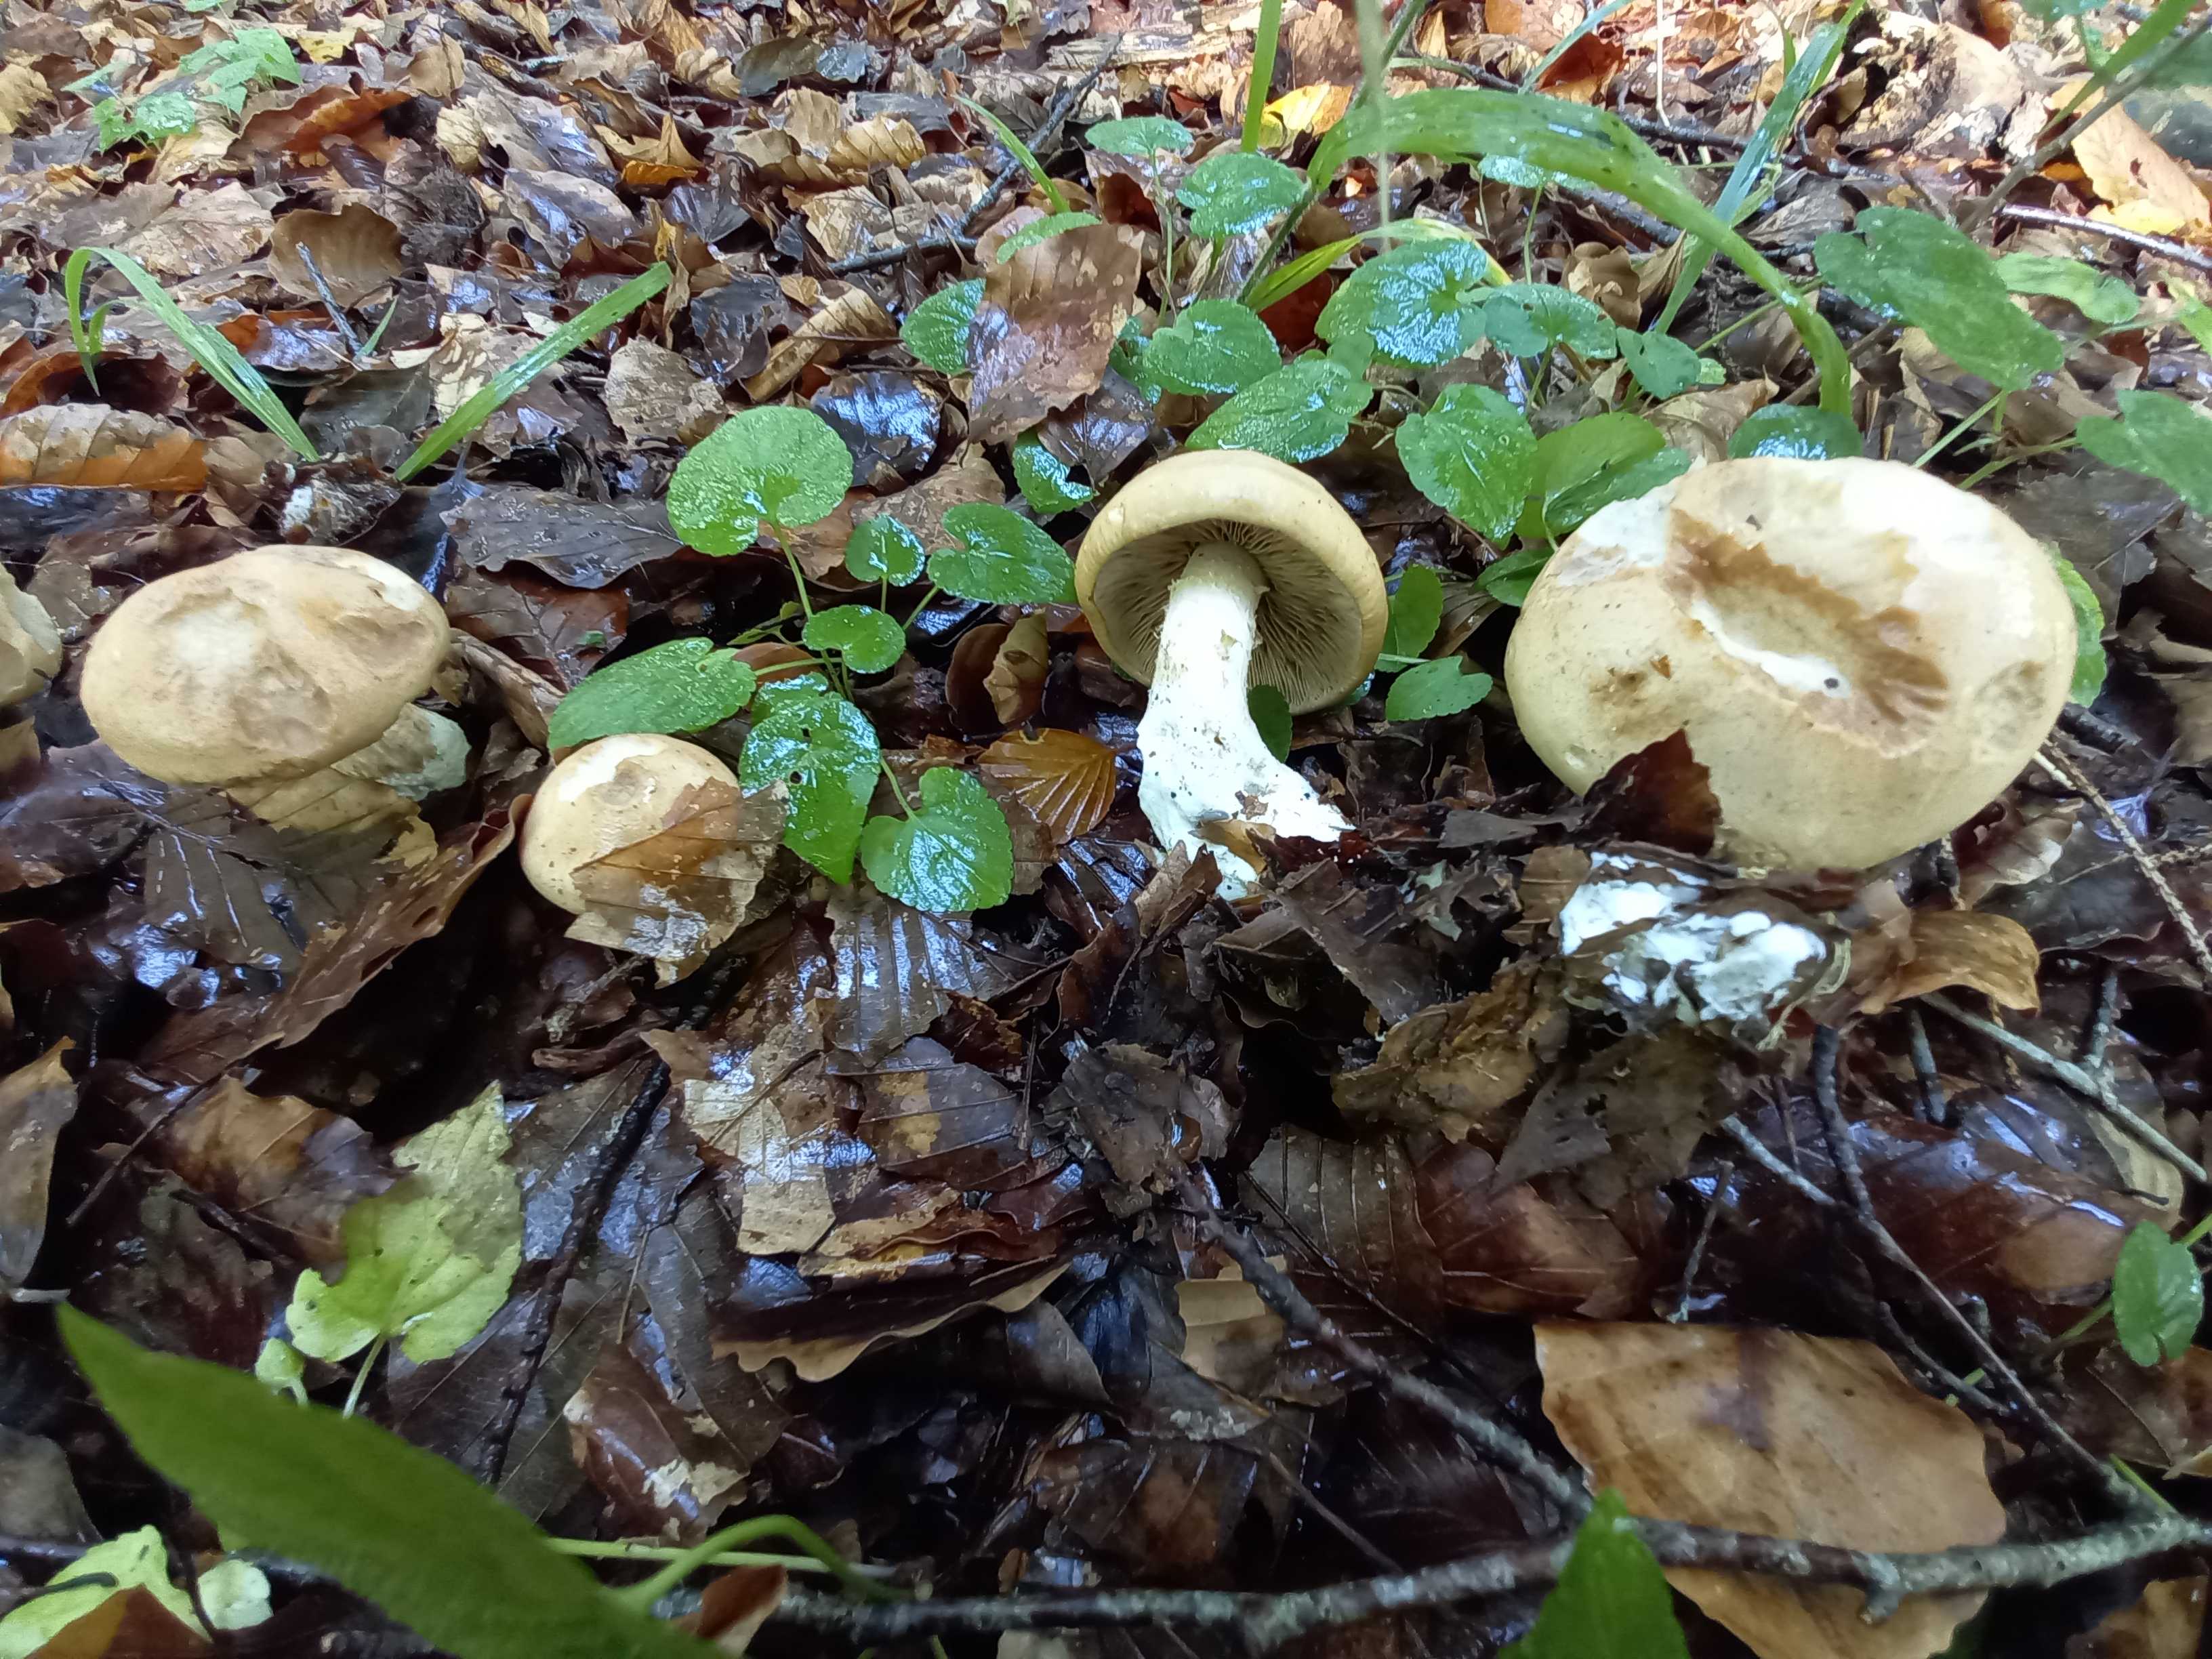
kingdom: Fungi
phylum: Basidiomycota
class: Agaricomycetes
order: Agaricales
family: Hymenogastraceae
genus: Hebeloma
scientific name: Hebeloma radicosum
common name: pælerods-tåreblad
